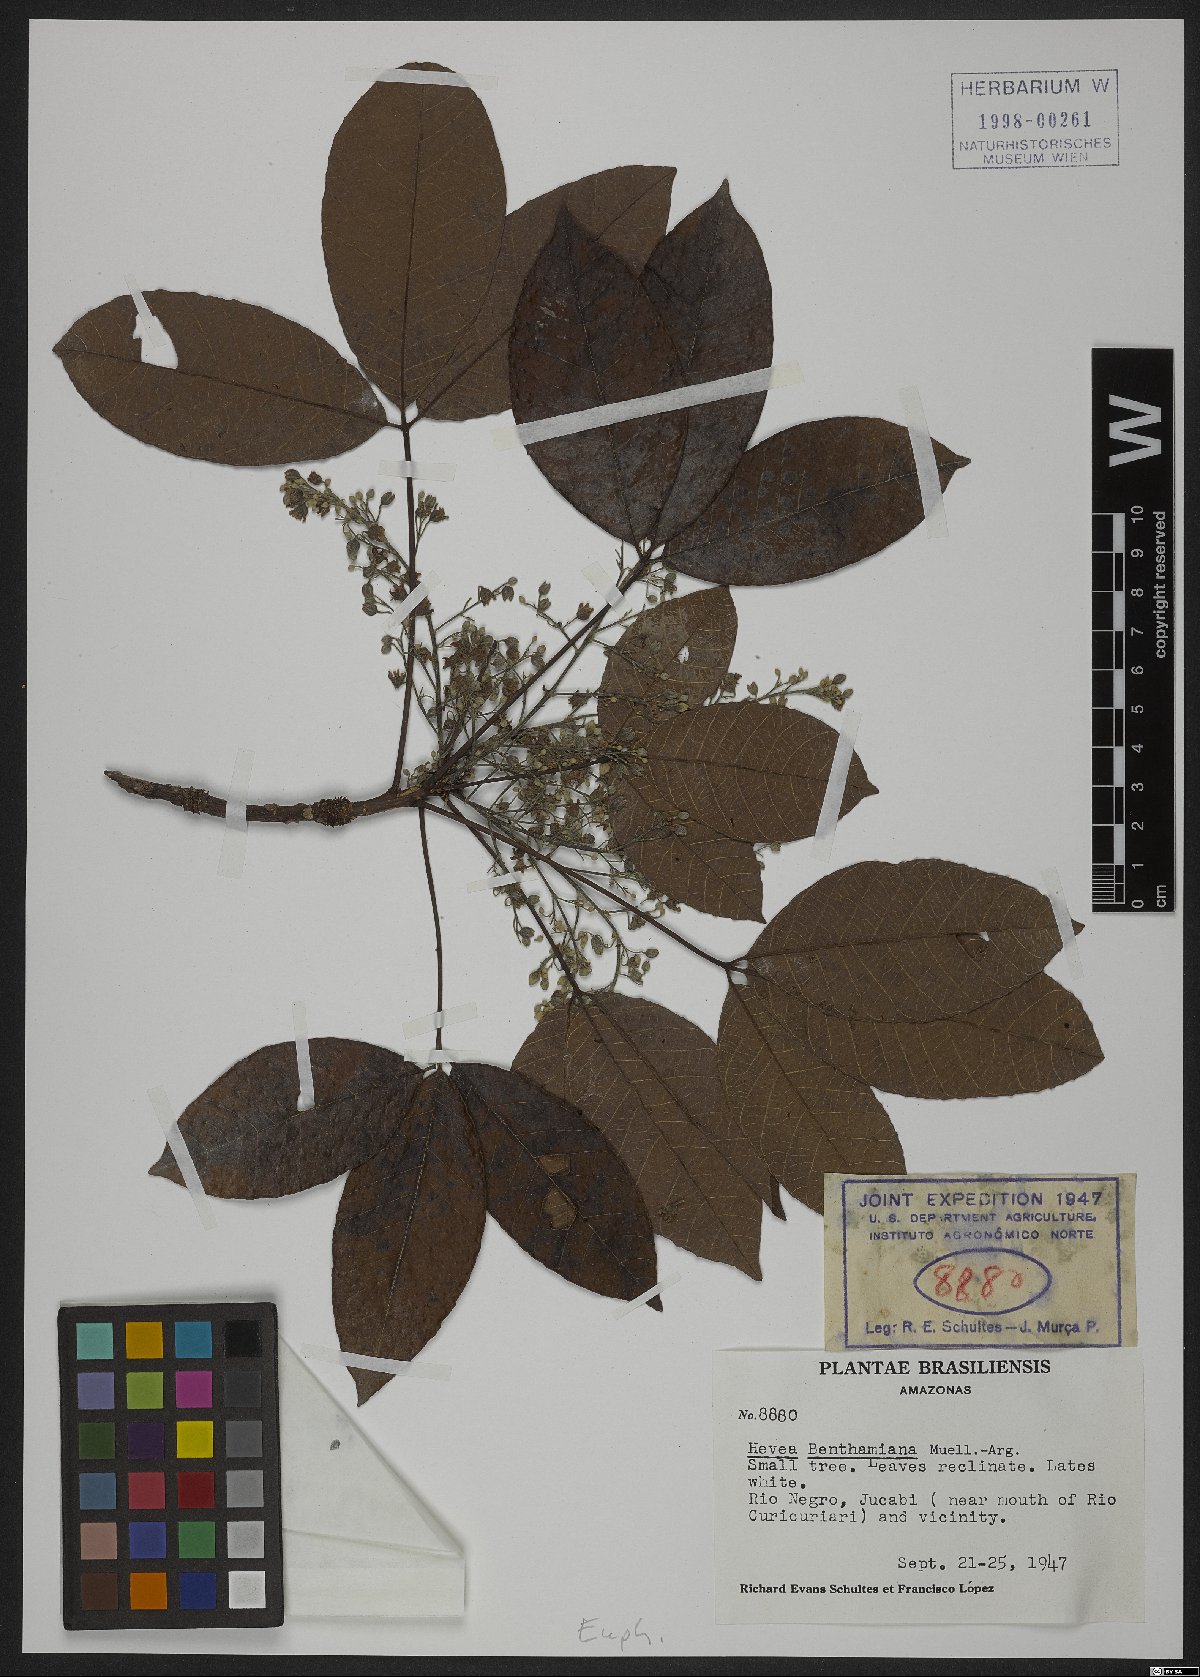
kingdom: Plantae
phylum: Tracheophyta
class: Magnoliopsida
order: Malpighiales
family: Euphorbiaceae
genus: Hevea
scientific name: Hevea benthamiana
